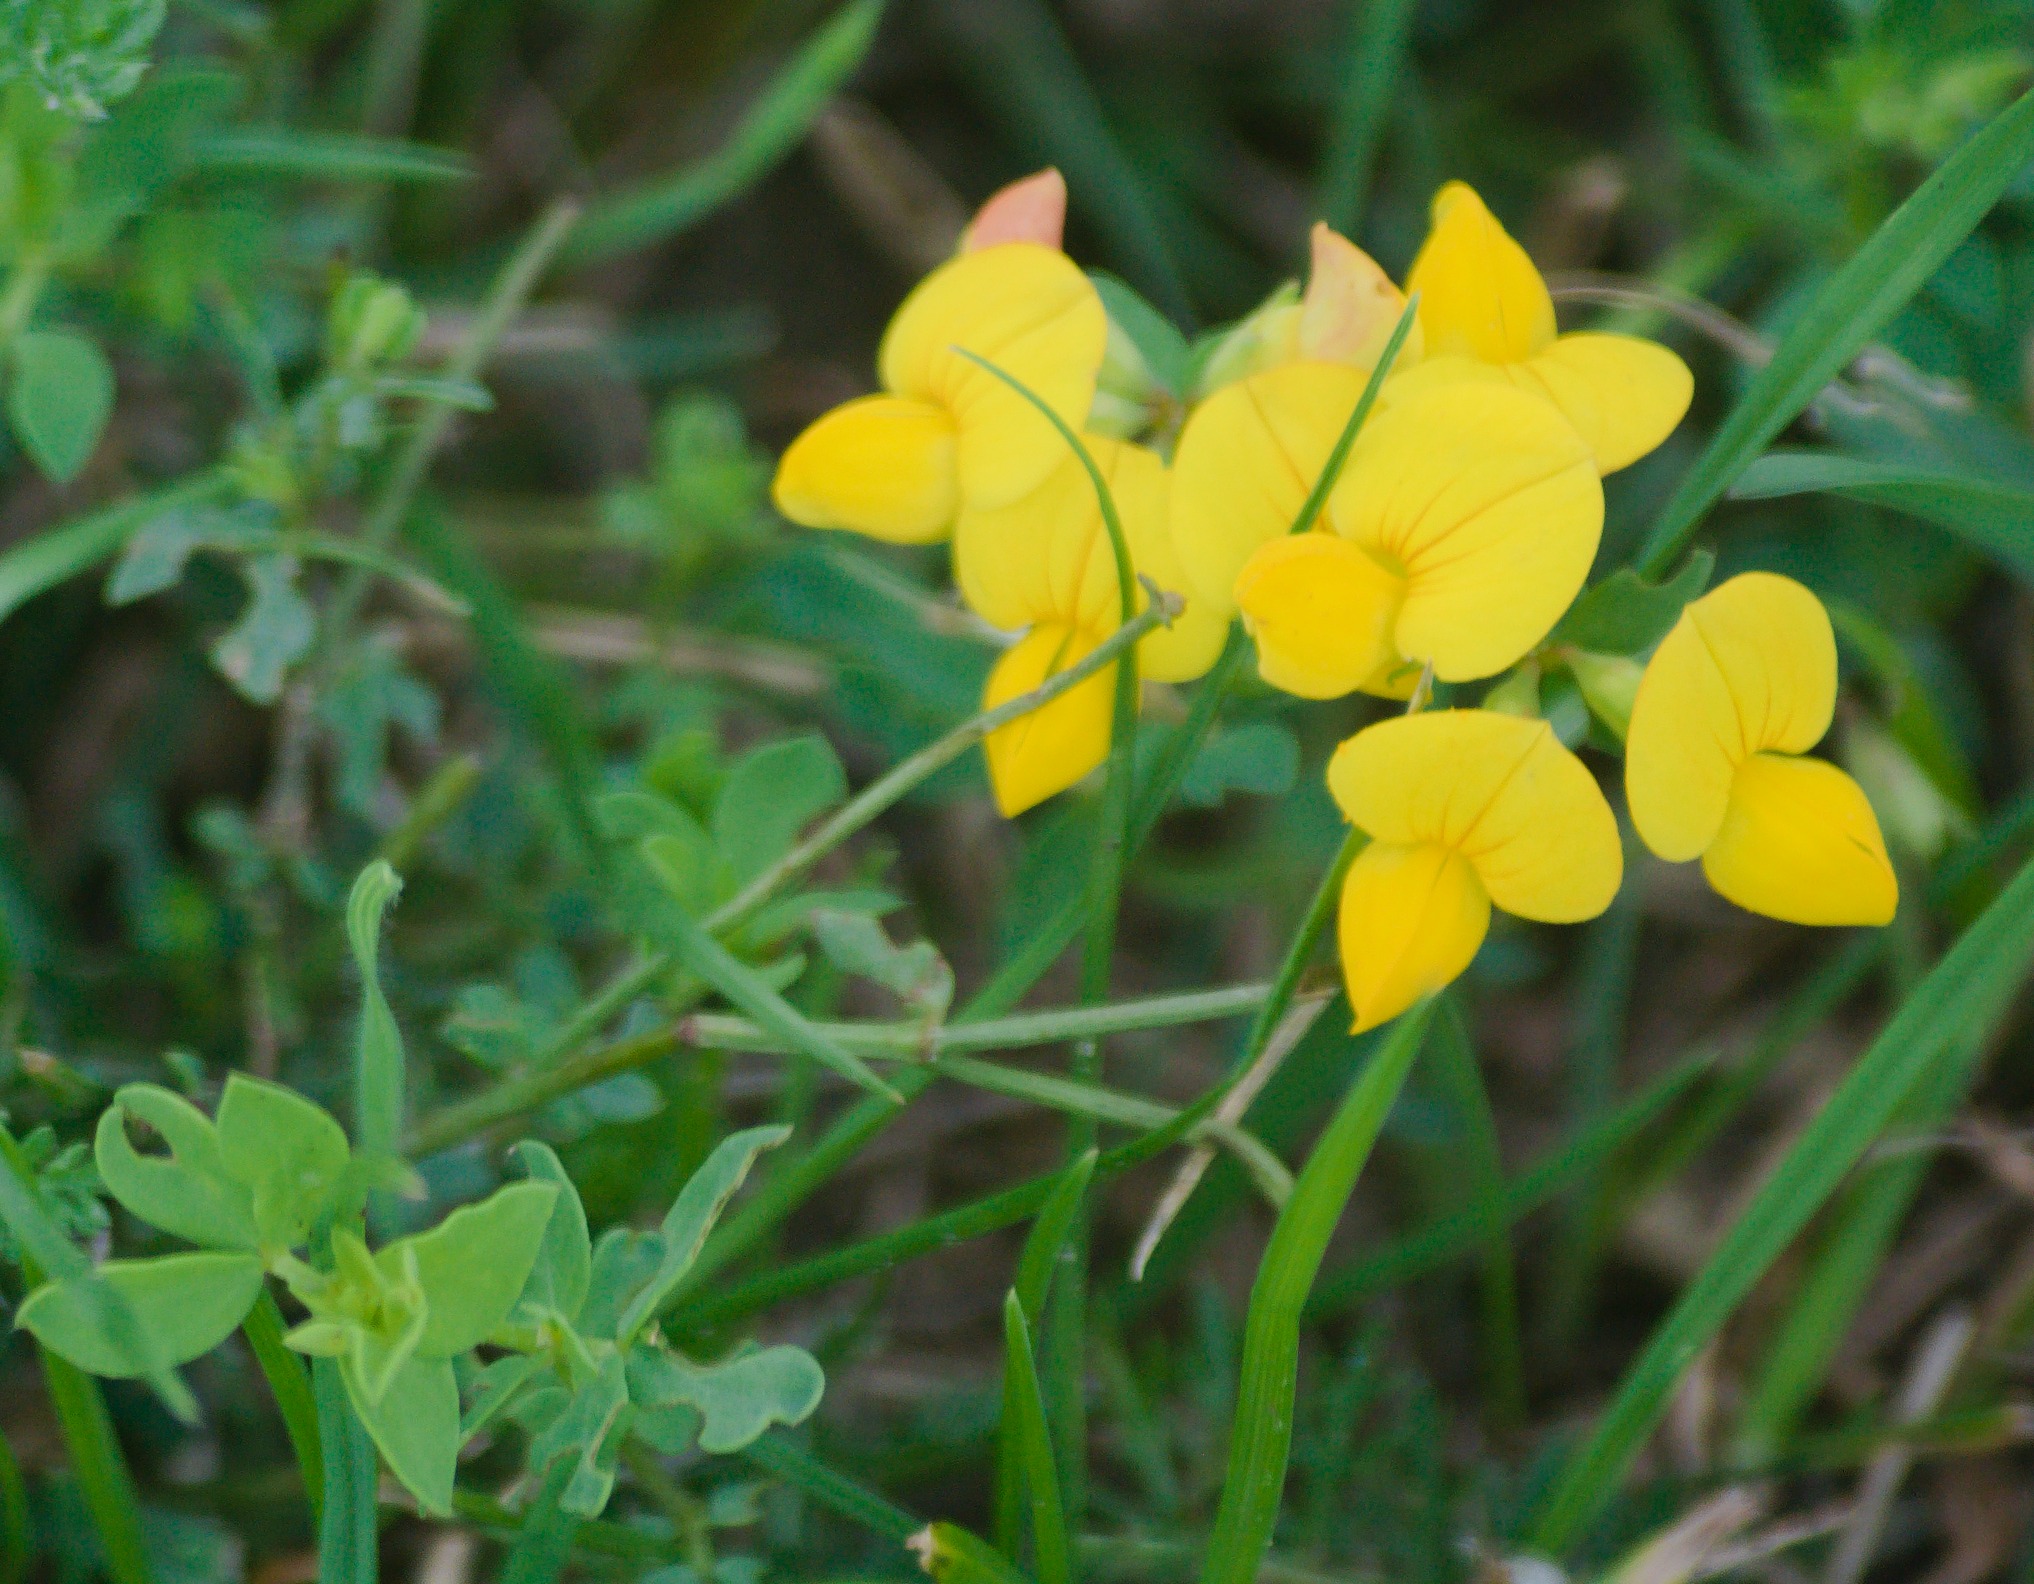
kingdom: Plantae
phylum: Tracheophyta
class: Magnoliopsida
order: Fabales
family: Fabaceae
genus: Lotus
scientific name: Lotus corniculatus
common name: Almindelig kællingetand
